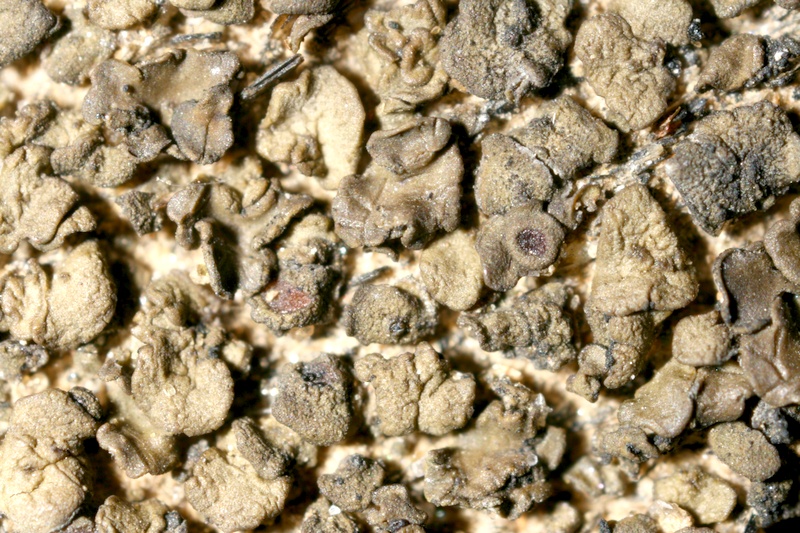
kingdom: Fungi
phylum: Ascomycota
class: Lichinomycetes
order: Lichinales
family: Peltulaceae
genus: Peltula
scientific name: Peltula obscurans
